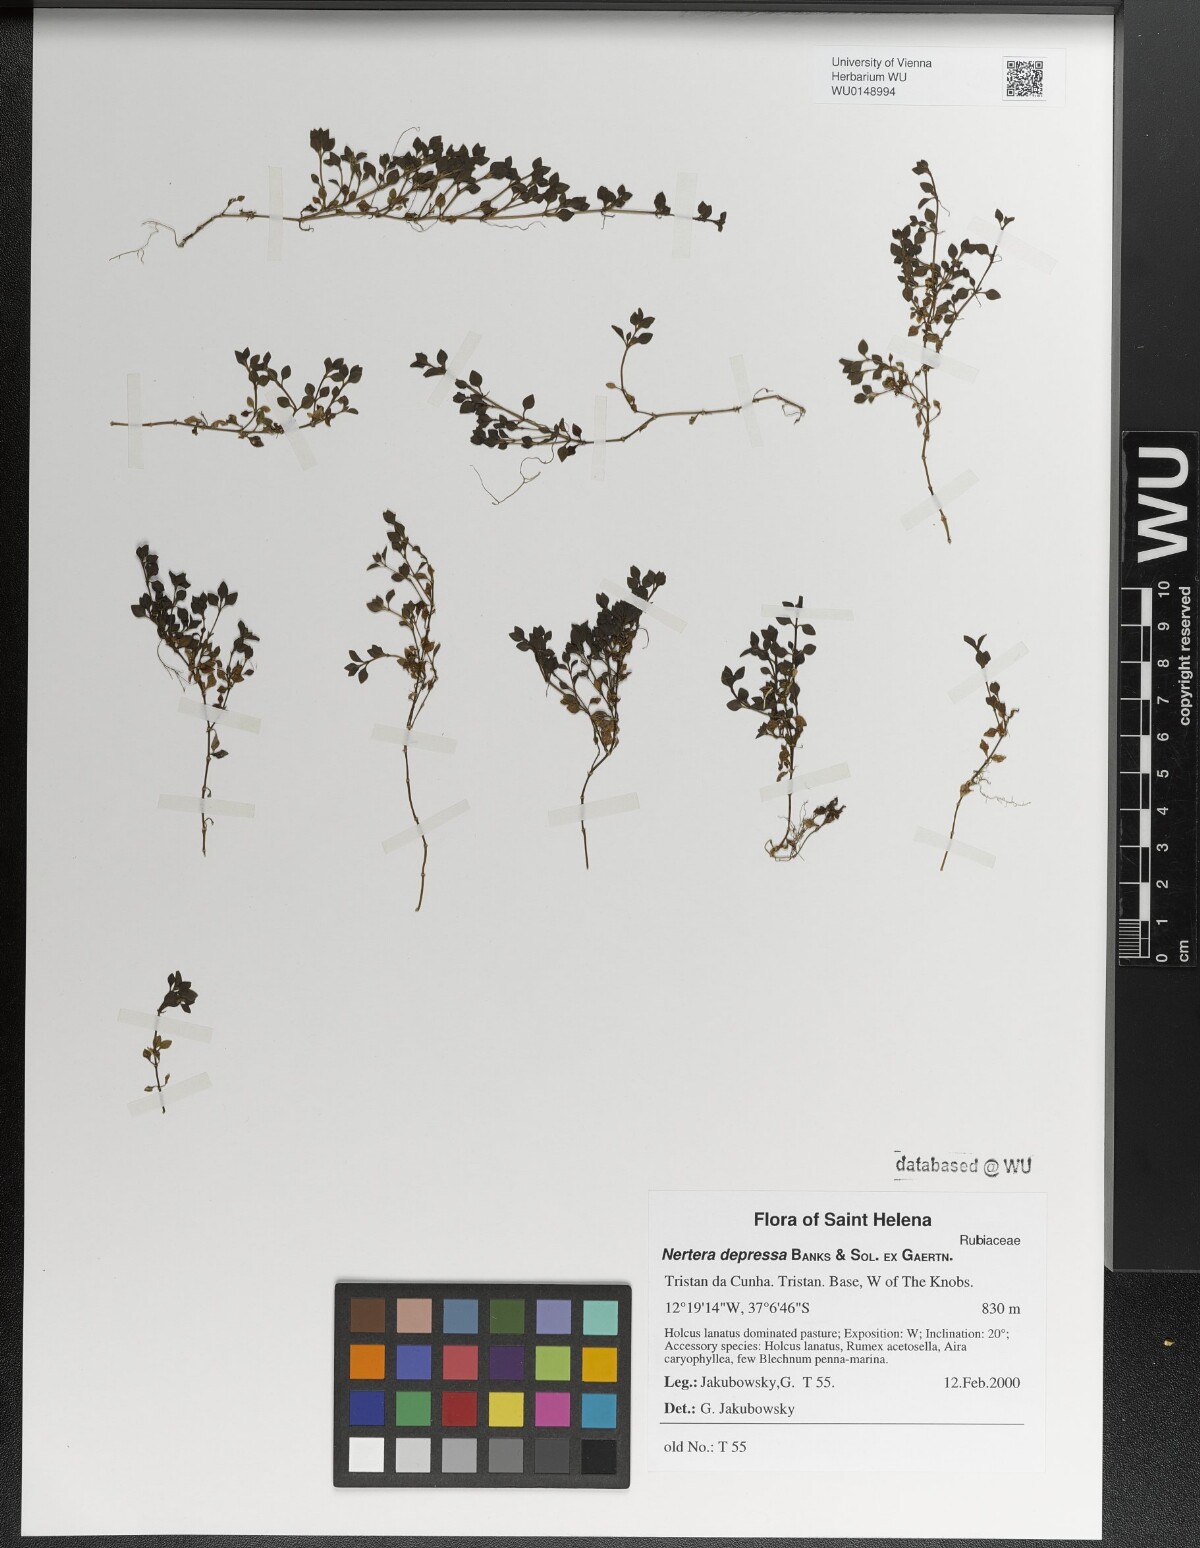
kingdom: Plantae
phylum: Tracheophyta
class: Magnoliopsida
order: Gentianales
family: Rubiaceae
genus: Nertera
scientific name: Nertera granadensis
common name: Beadplant
